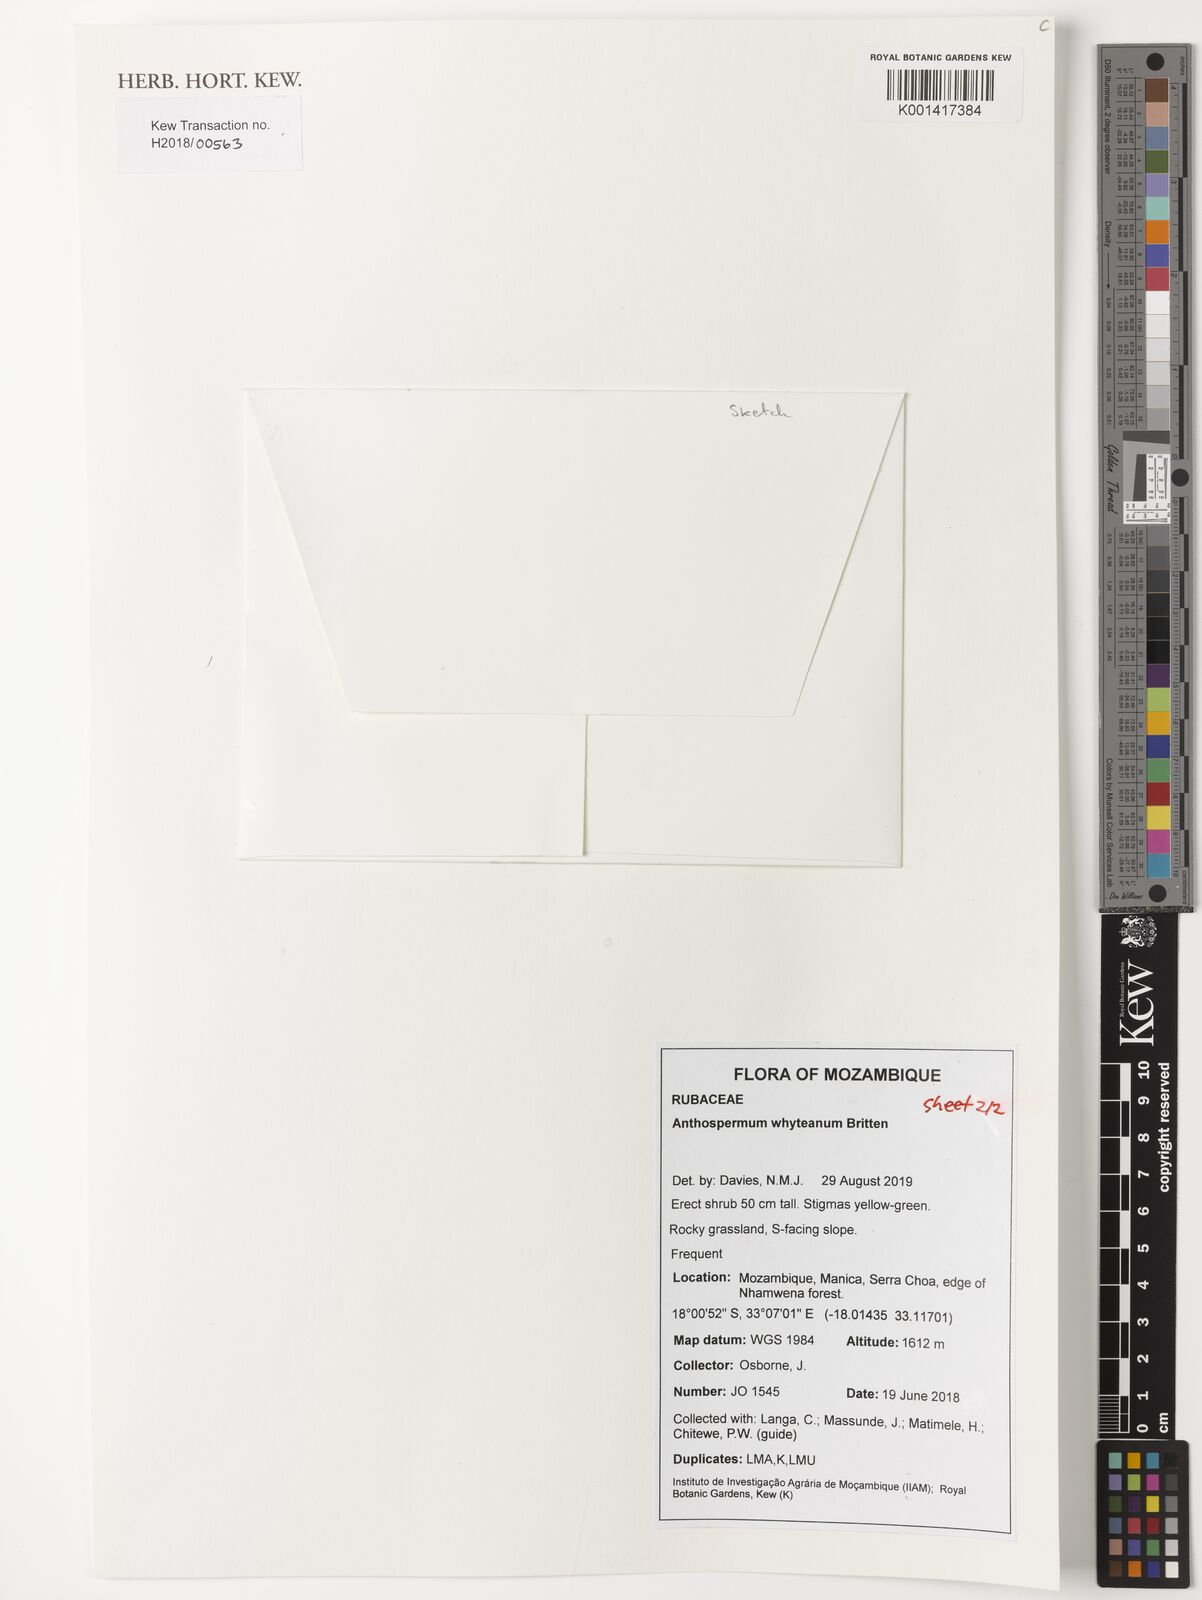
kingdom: Plantae
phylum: Tracheophyta
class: Magnoliopsida
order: Gentianales
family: Rubiaceae
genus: Anthospermum
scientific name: Anthospermum whyteanum
